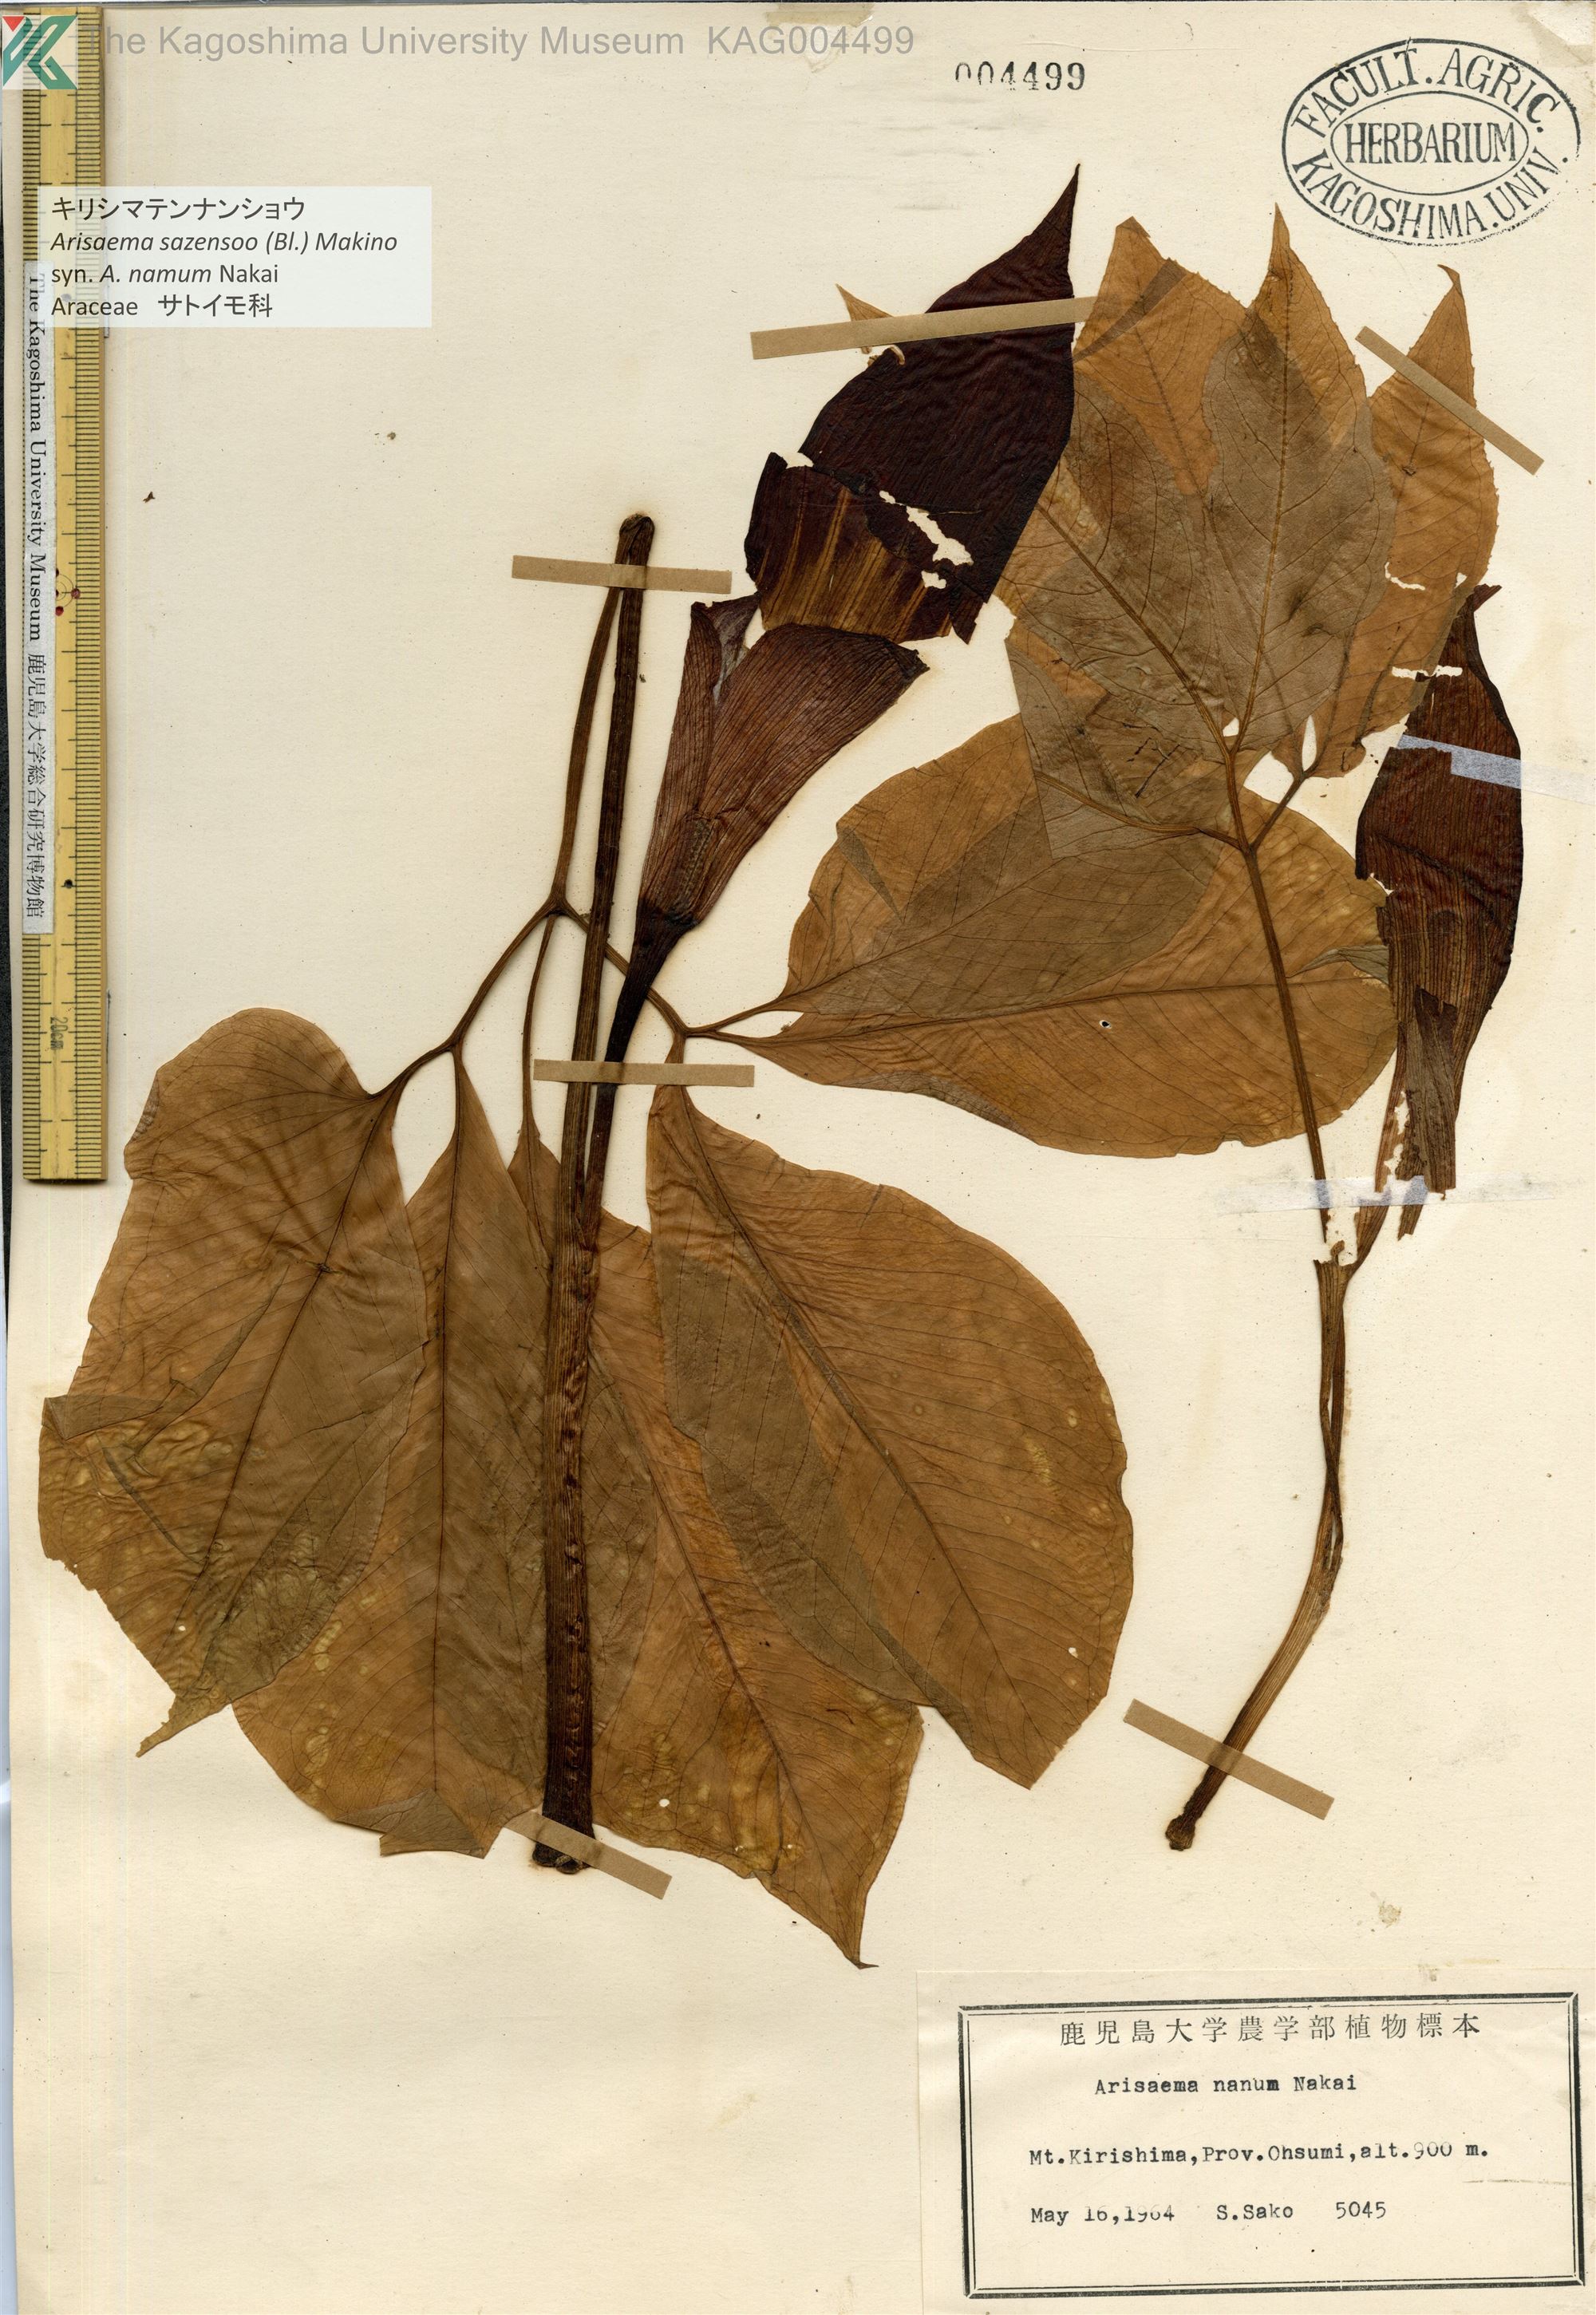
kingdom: Plantae
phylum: Tracheophyta
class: Liliopsida
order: Alismatales
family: Araceae
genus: Arisaema
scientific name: Arisaema sazensoo
